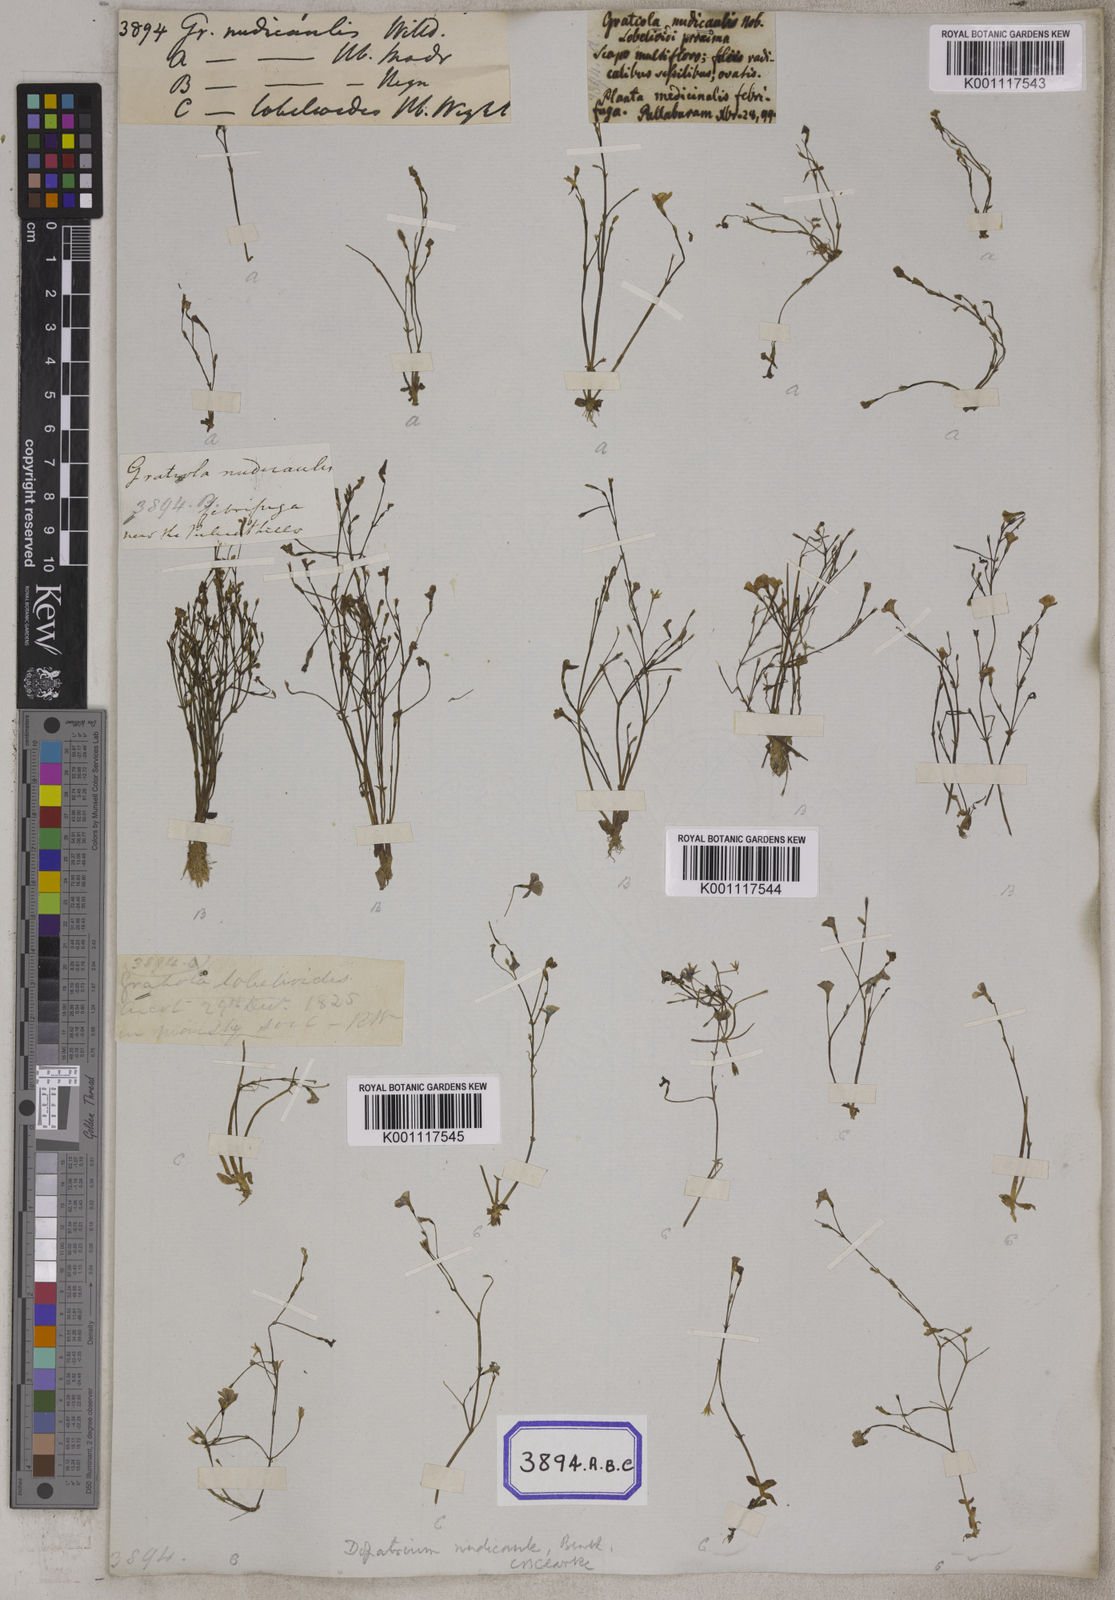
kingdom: Plantae
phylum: Tracheophyta
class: Magnoliopsida
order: Lamiales
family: Plantaginaceae
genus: Gratiola
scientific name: Gratiola
